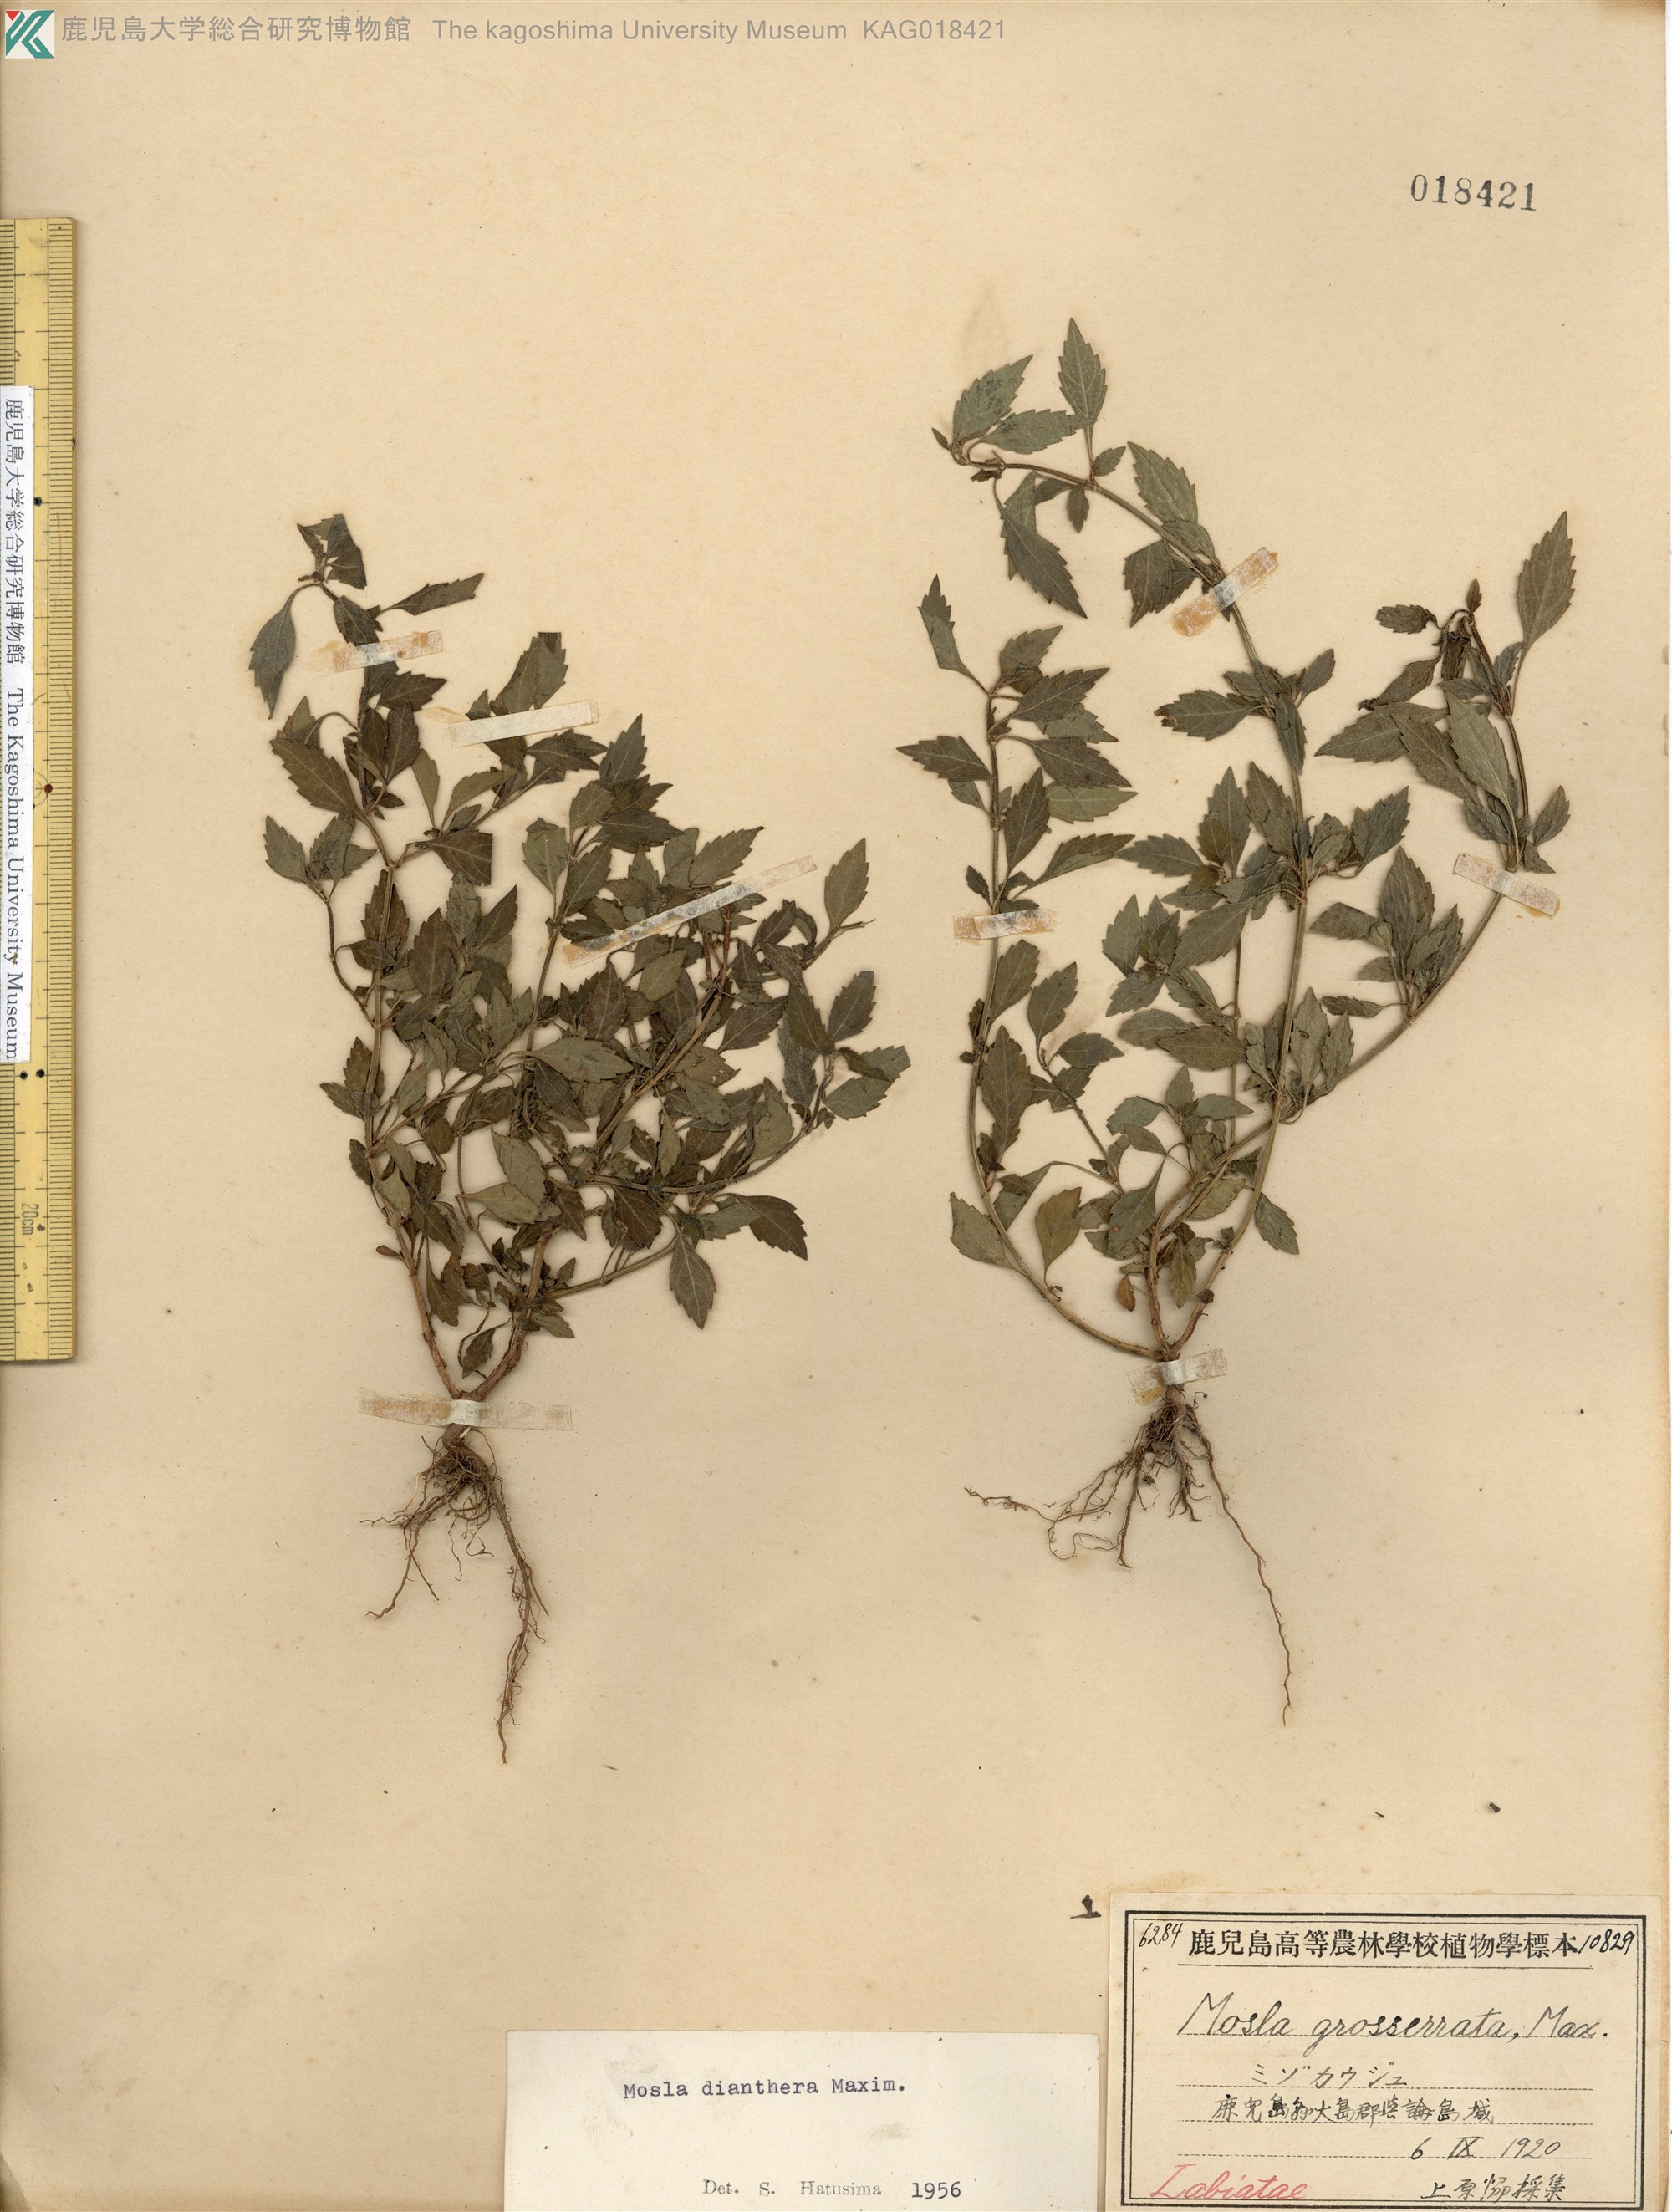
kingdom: Plantae
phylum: Tracheophyta
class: Magnoliopsida
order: Lamiales
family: Lamiaceae
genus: Mosla
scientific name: Mosla dianthera
